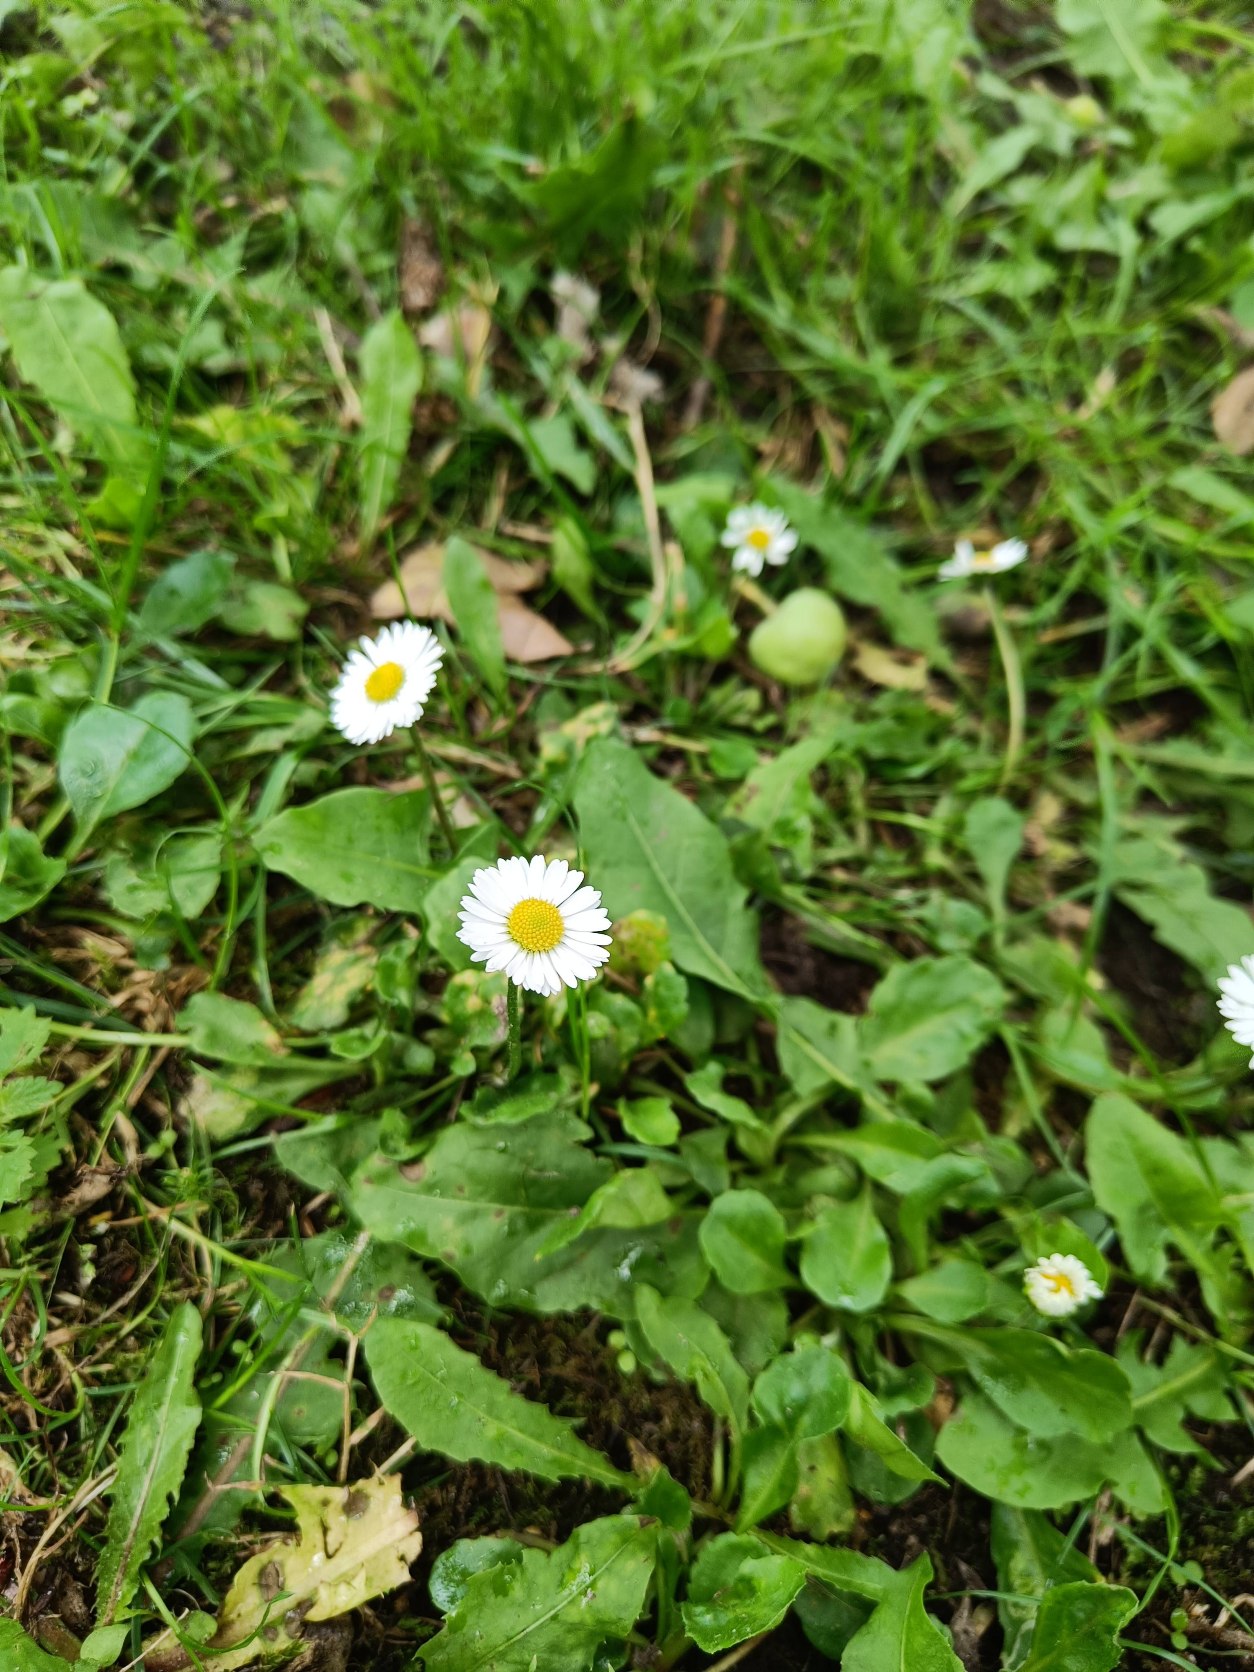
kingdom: Plantae
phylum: Tracheophyta
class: Magnoliopsida
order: Asterales
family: Asteraceae
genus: Bellis
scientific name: Bellis perennis
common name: Tusindfryd
